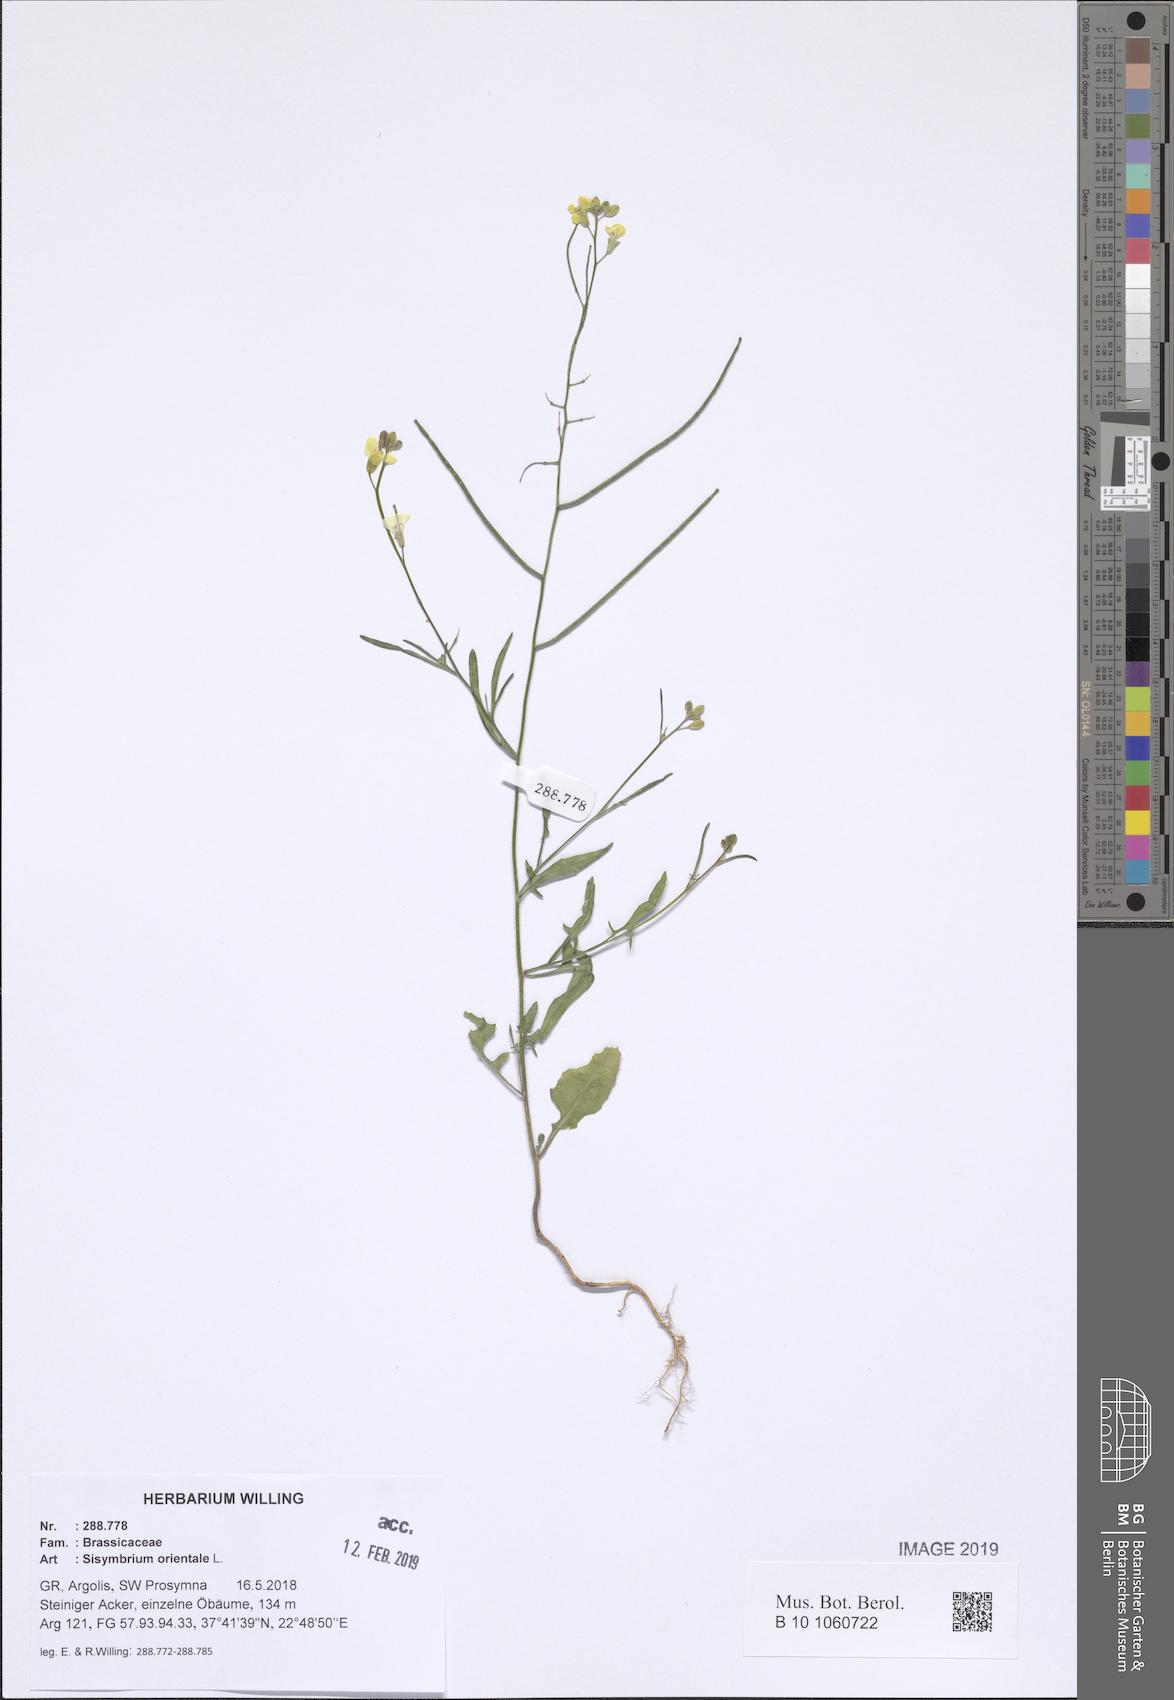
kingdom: Plantae
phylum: Tracheophyta
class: Magnoliopsida
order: Brassicales
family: Brassicaceae
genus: Sisymbrium
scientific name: Sisymbrium orientale
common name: Eastern rocket
